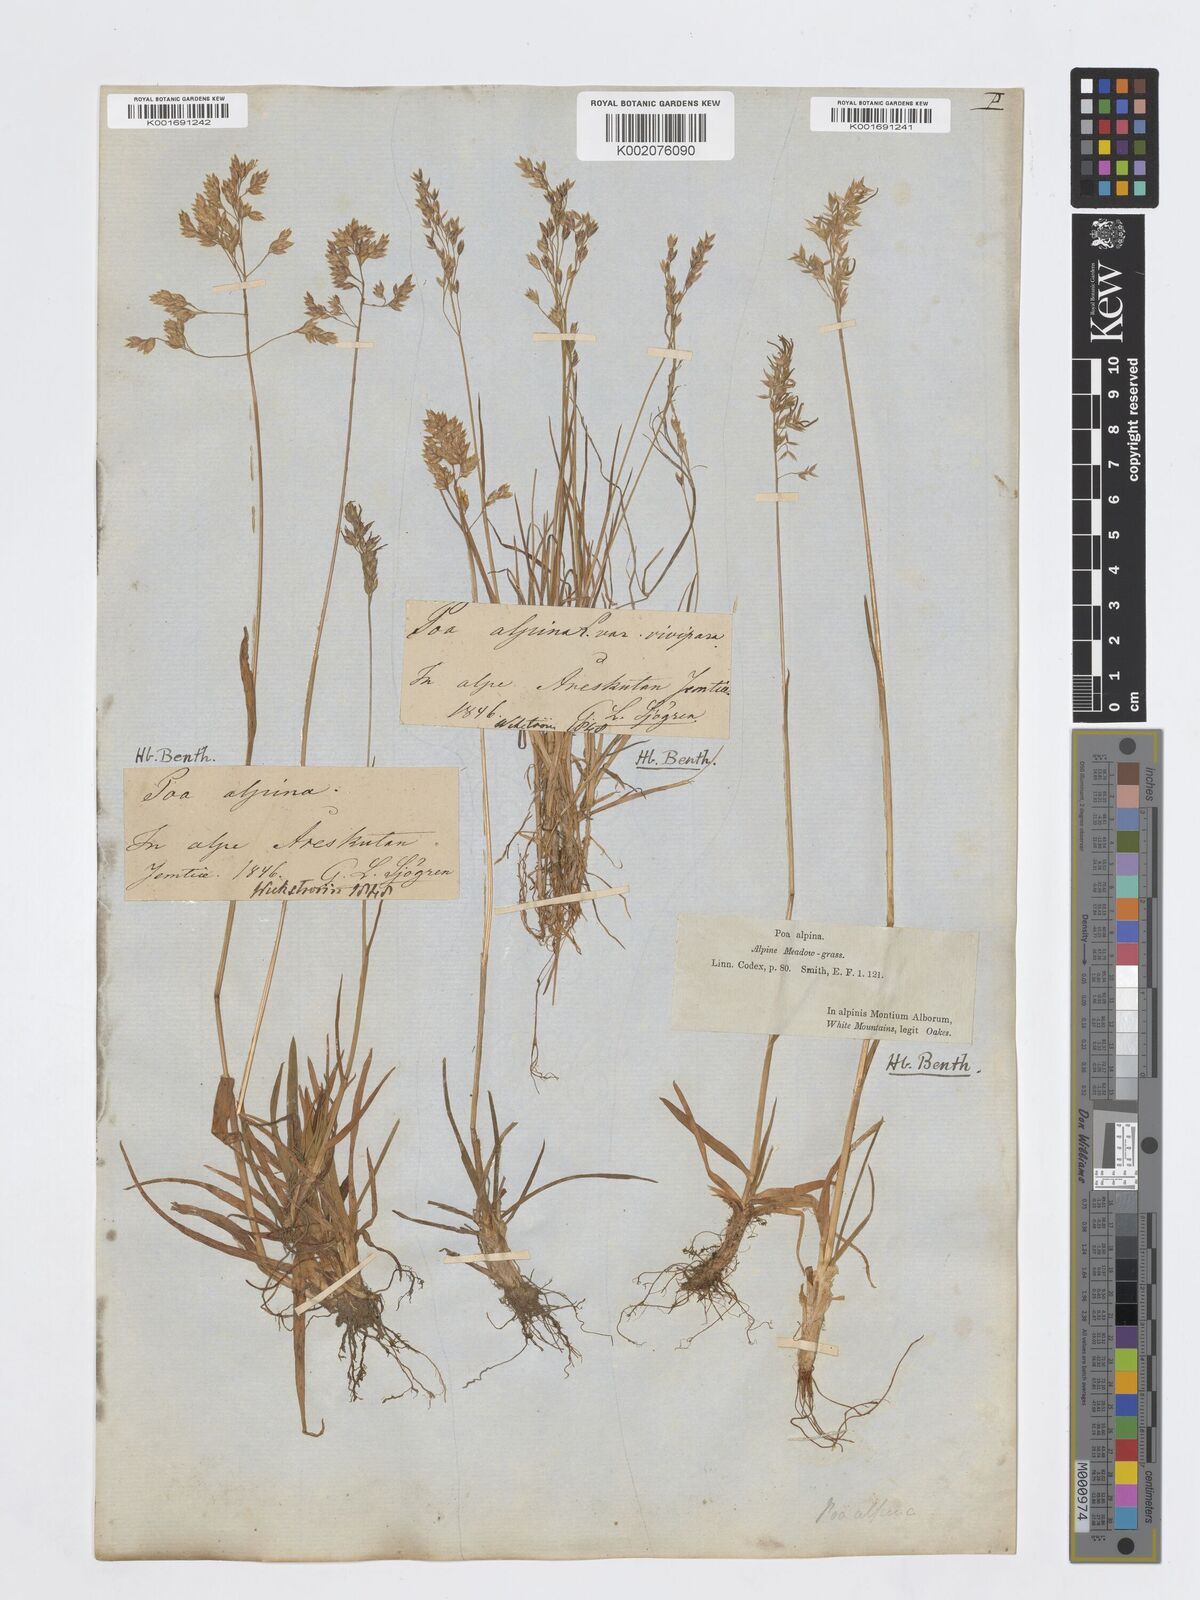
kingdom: Plantae
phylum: Tracheophyta
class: Liliopsida
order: Poales
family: Poaceae
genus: Poa
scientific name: Poa alpina
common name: Alpine bluegrass
